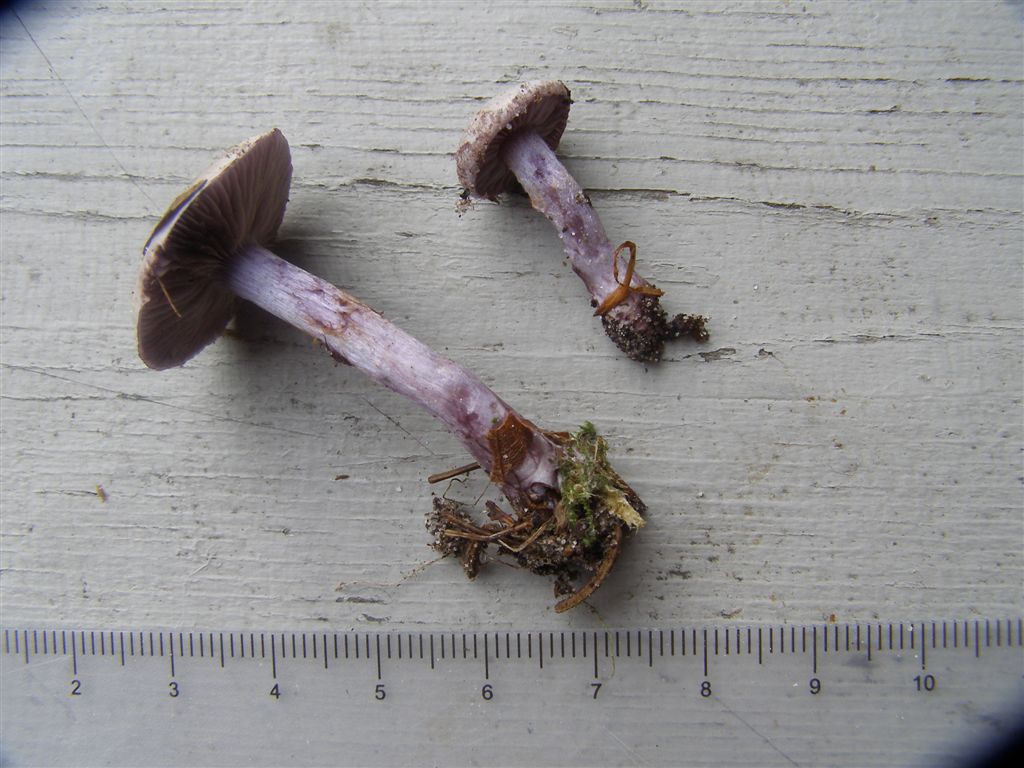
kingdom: Fungi
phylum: Basidiomycota
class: Agaricomycetes
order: Agaricales
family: Cortinariaceae
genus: Thaxterogaster
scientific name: Thaxterogaster subporphyropus
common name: ametyst-slørhat
